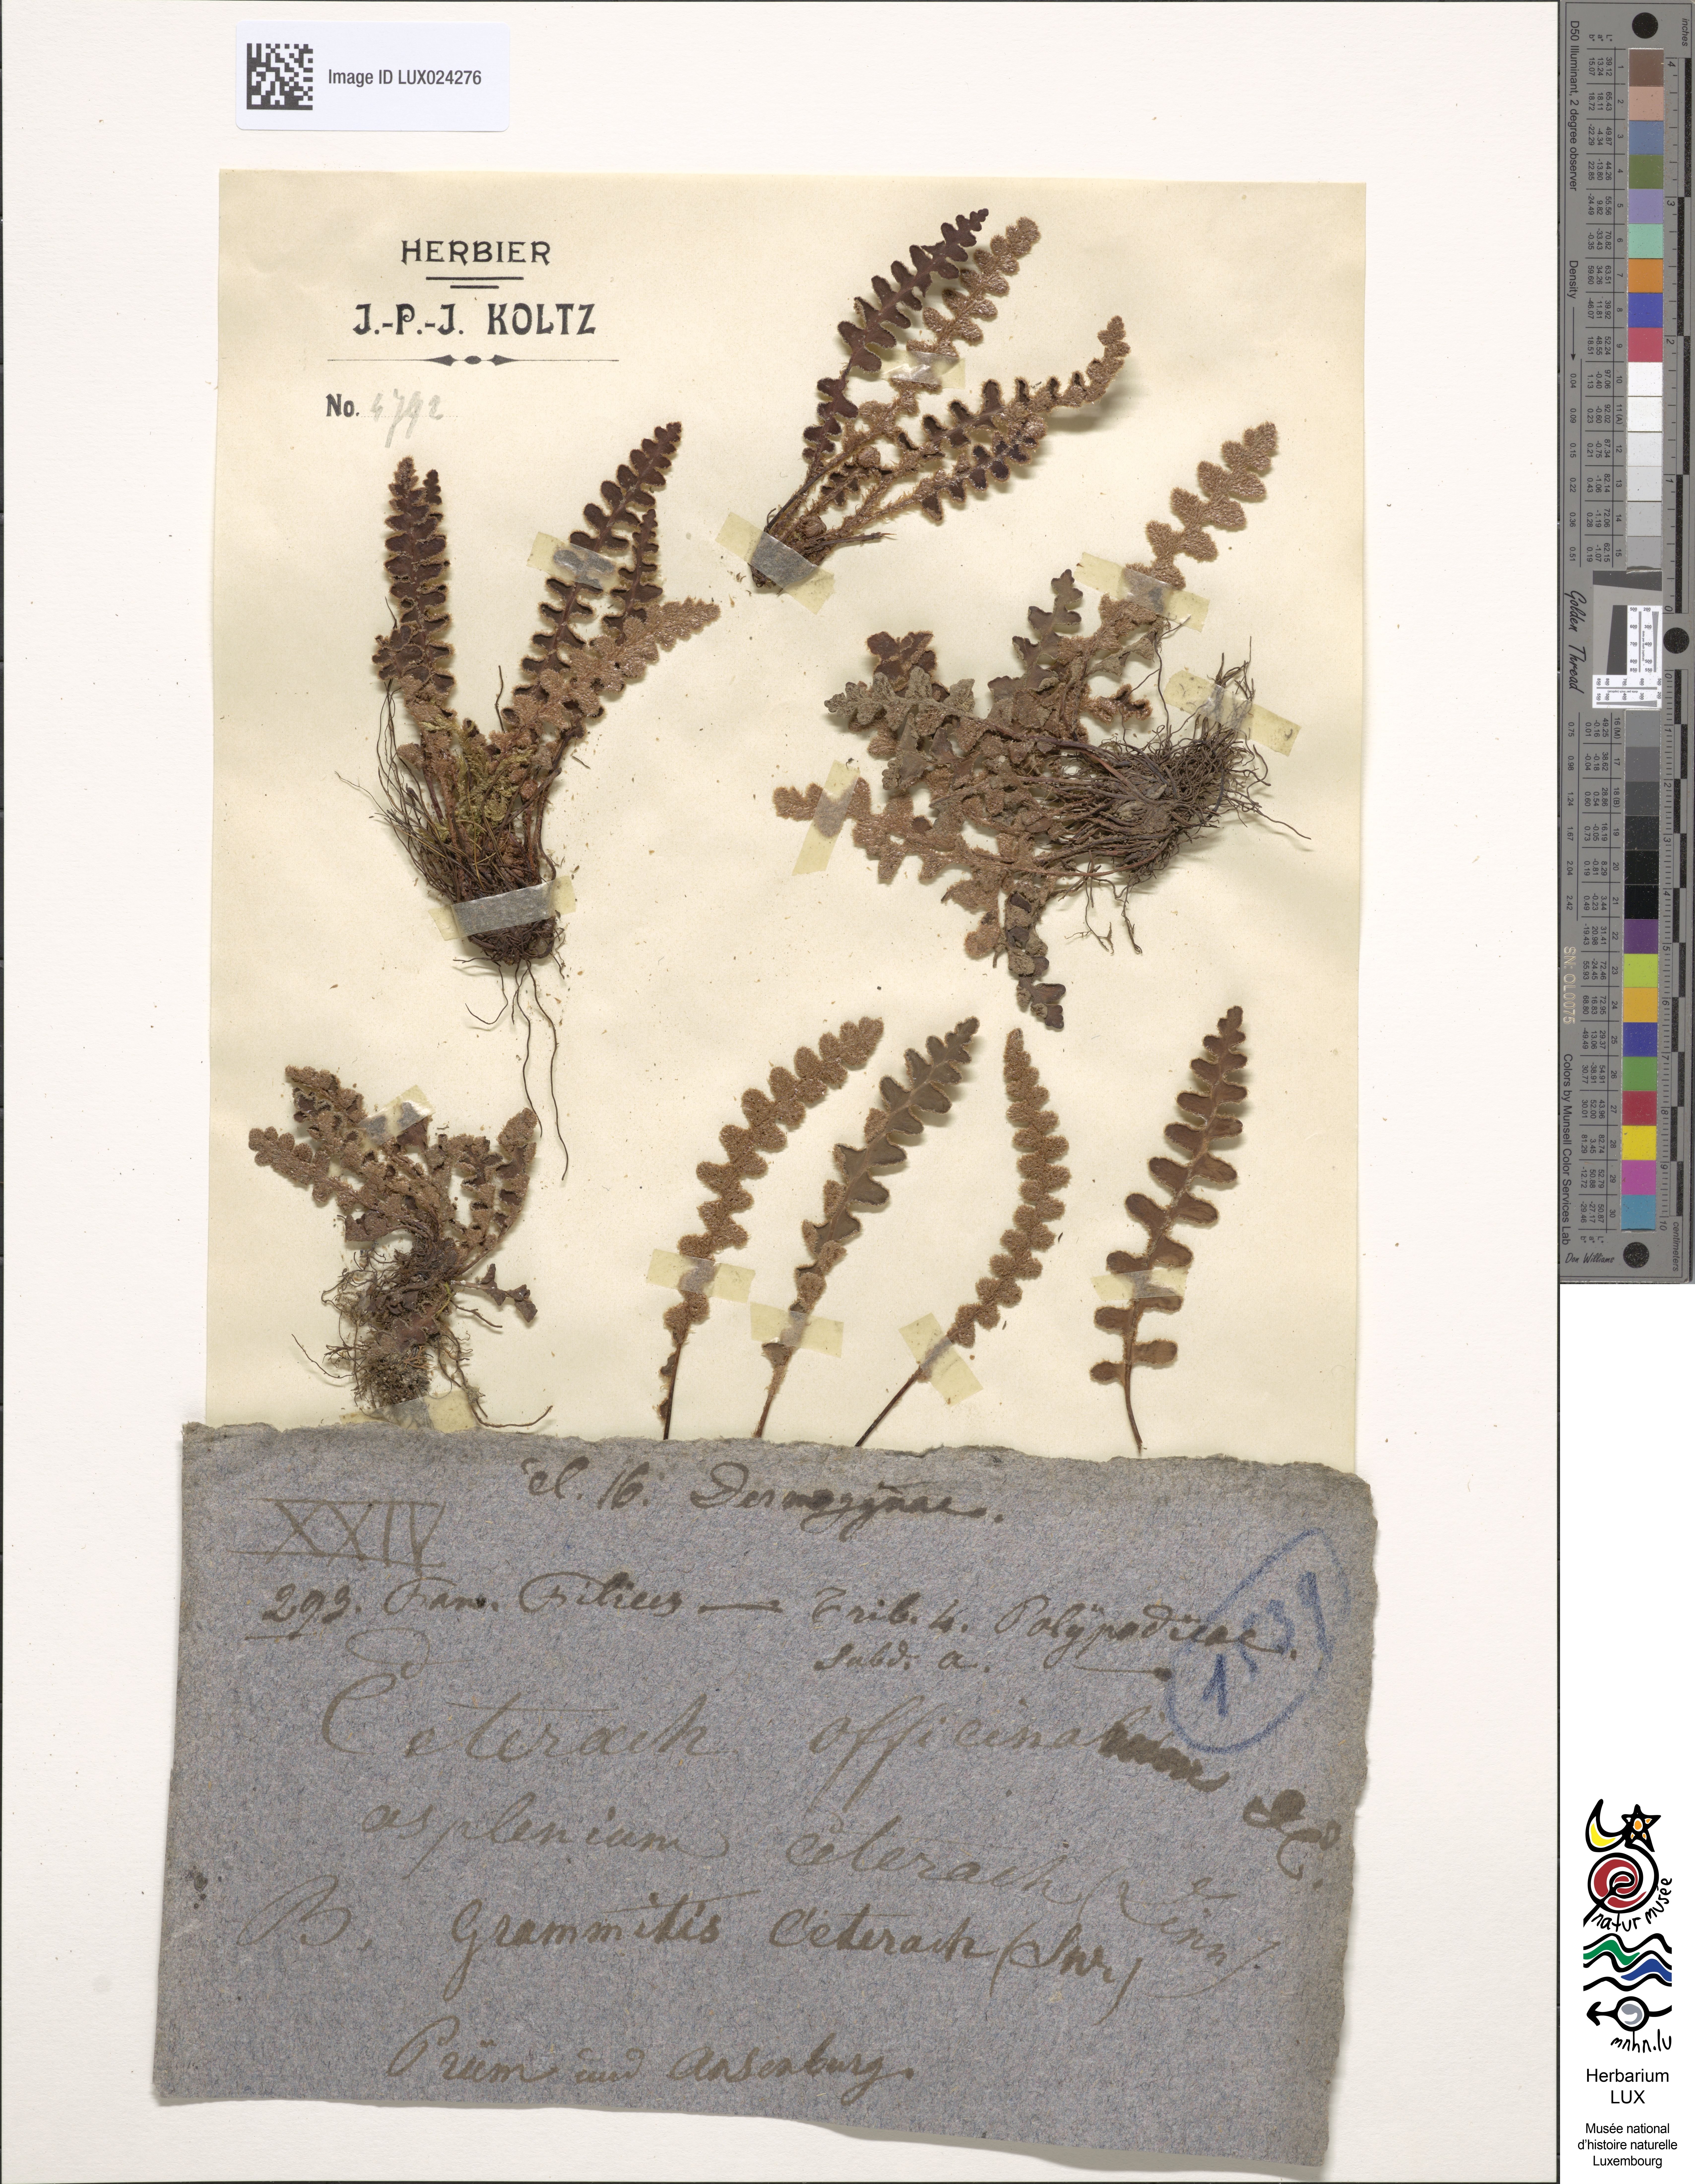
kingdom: Plantae
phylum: Tracheophyta
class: Polypodiopsida
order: Polypodiales
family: Aspleniaceae
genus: Asplenium
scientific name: Asplenium ceterach
